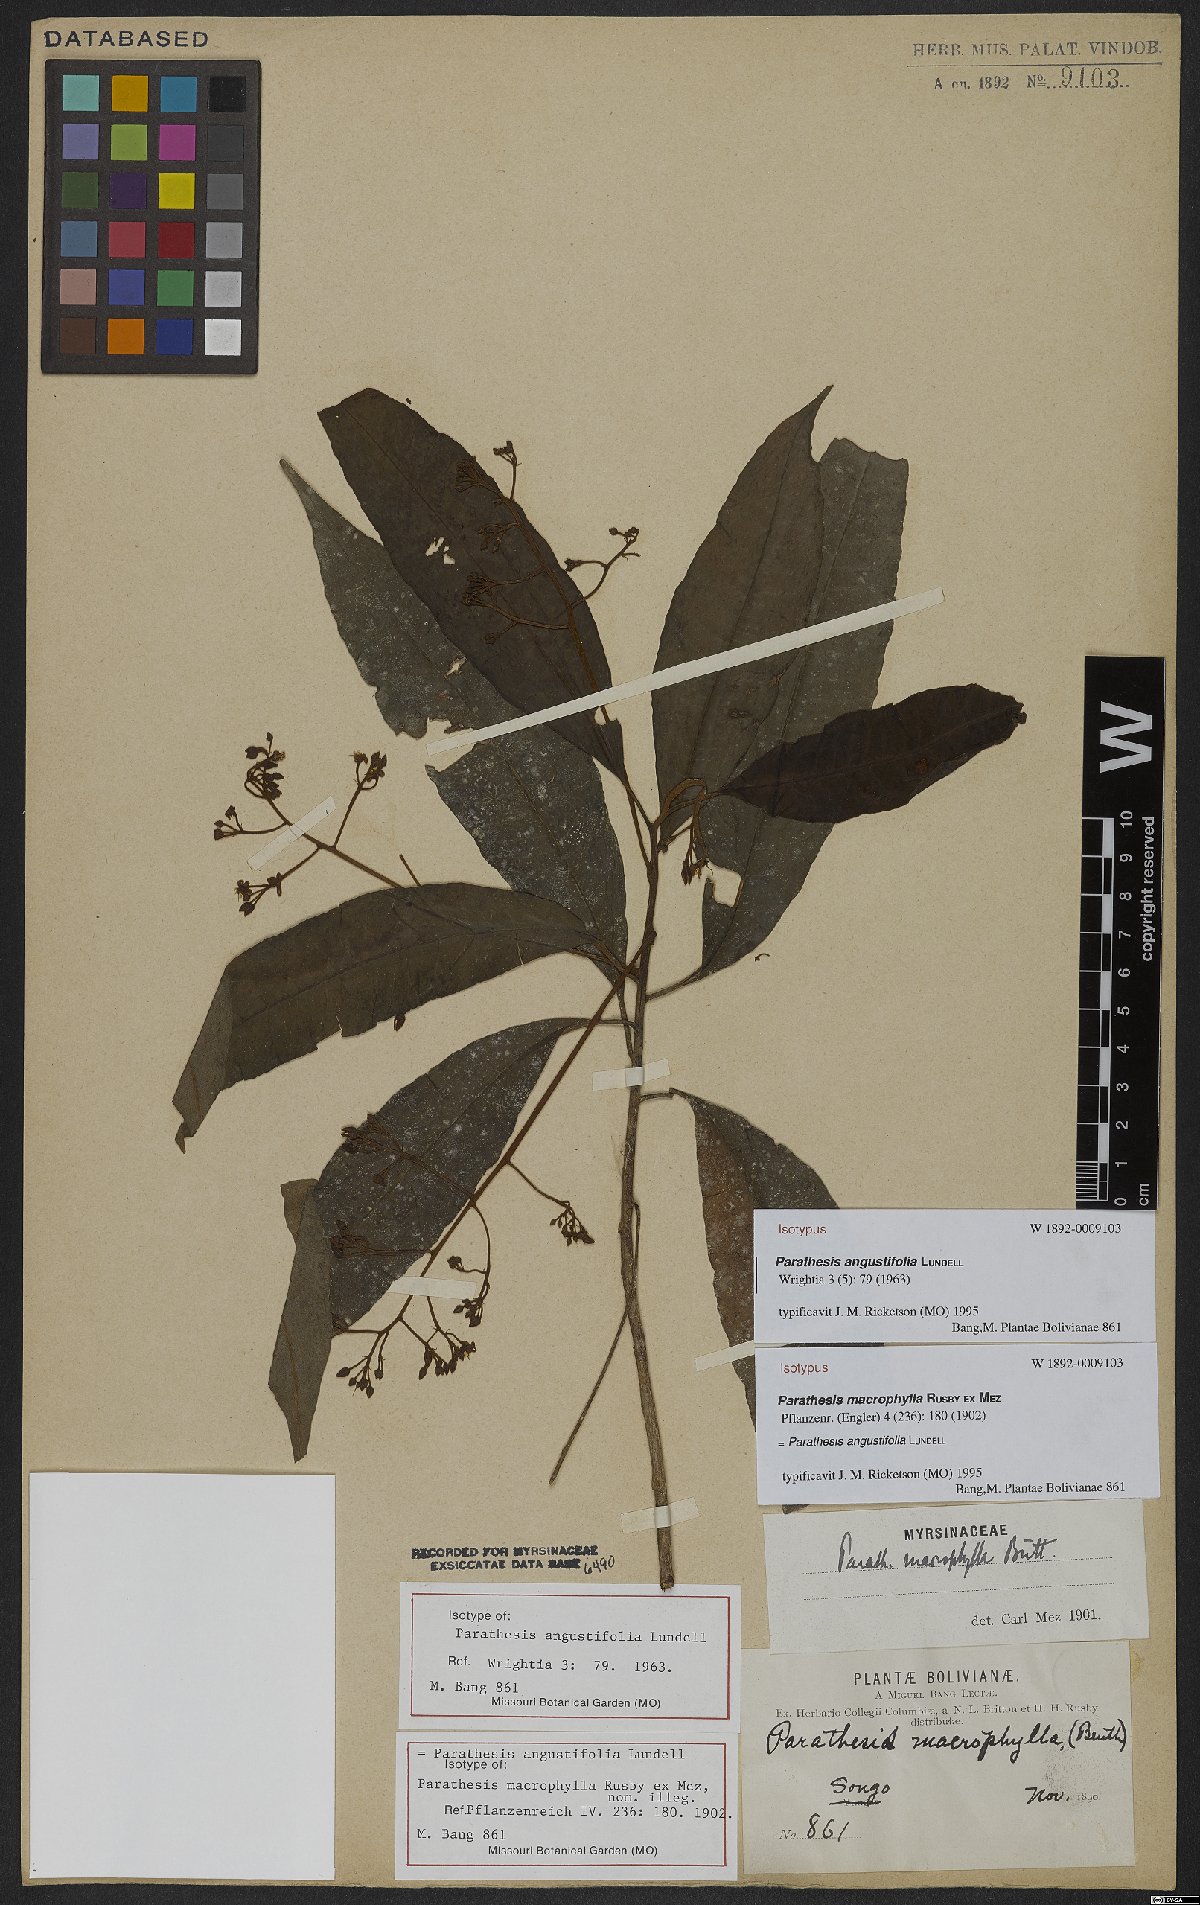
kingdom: Plantae
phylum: Tracheophyta
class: Magnoliopsida
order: Ericales
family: Primulaceae
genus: Parathesis
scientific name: Parathesis angustifolia
